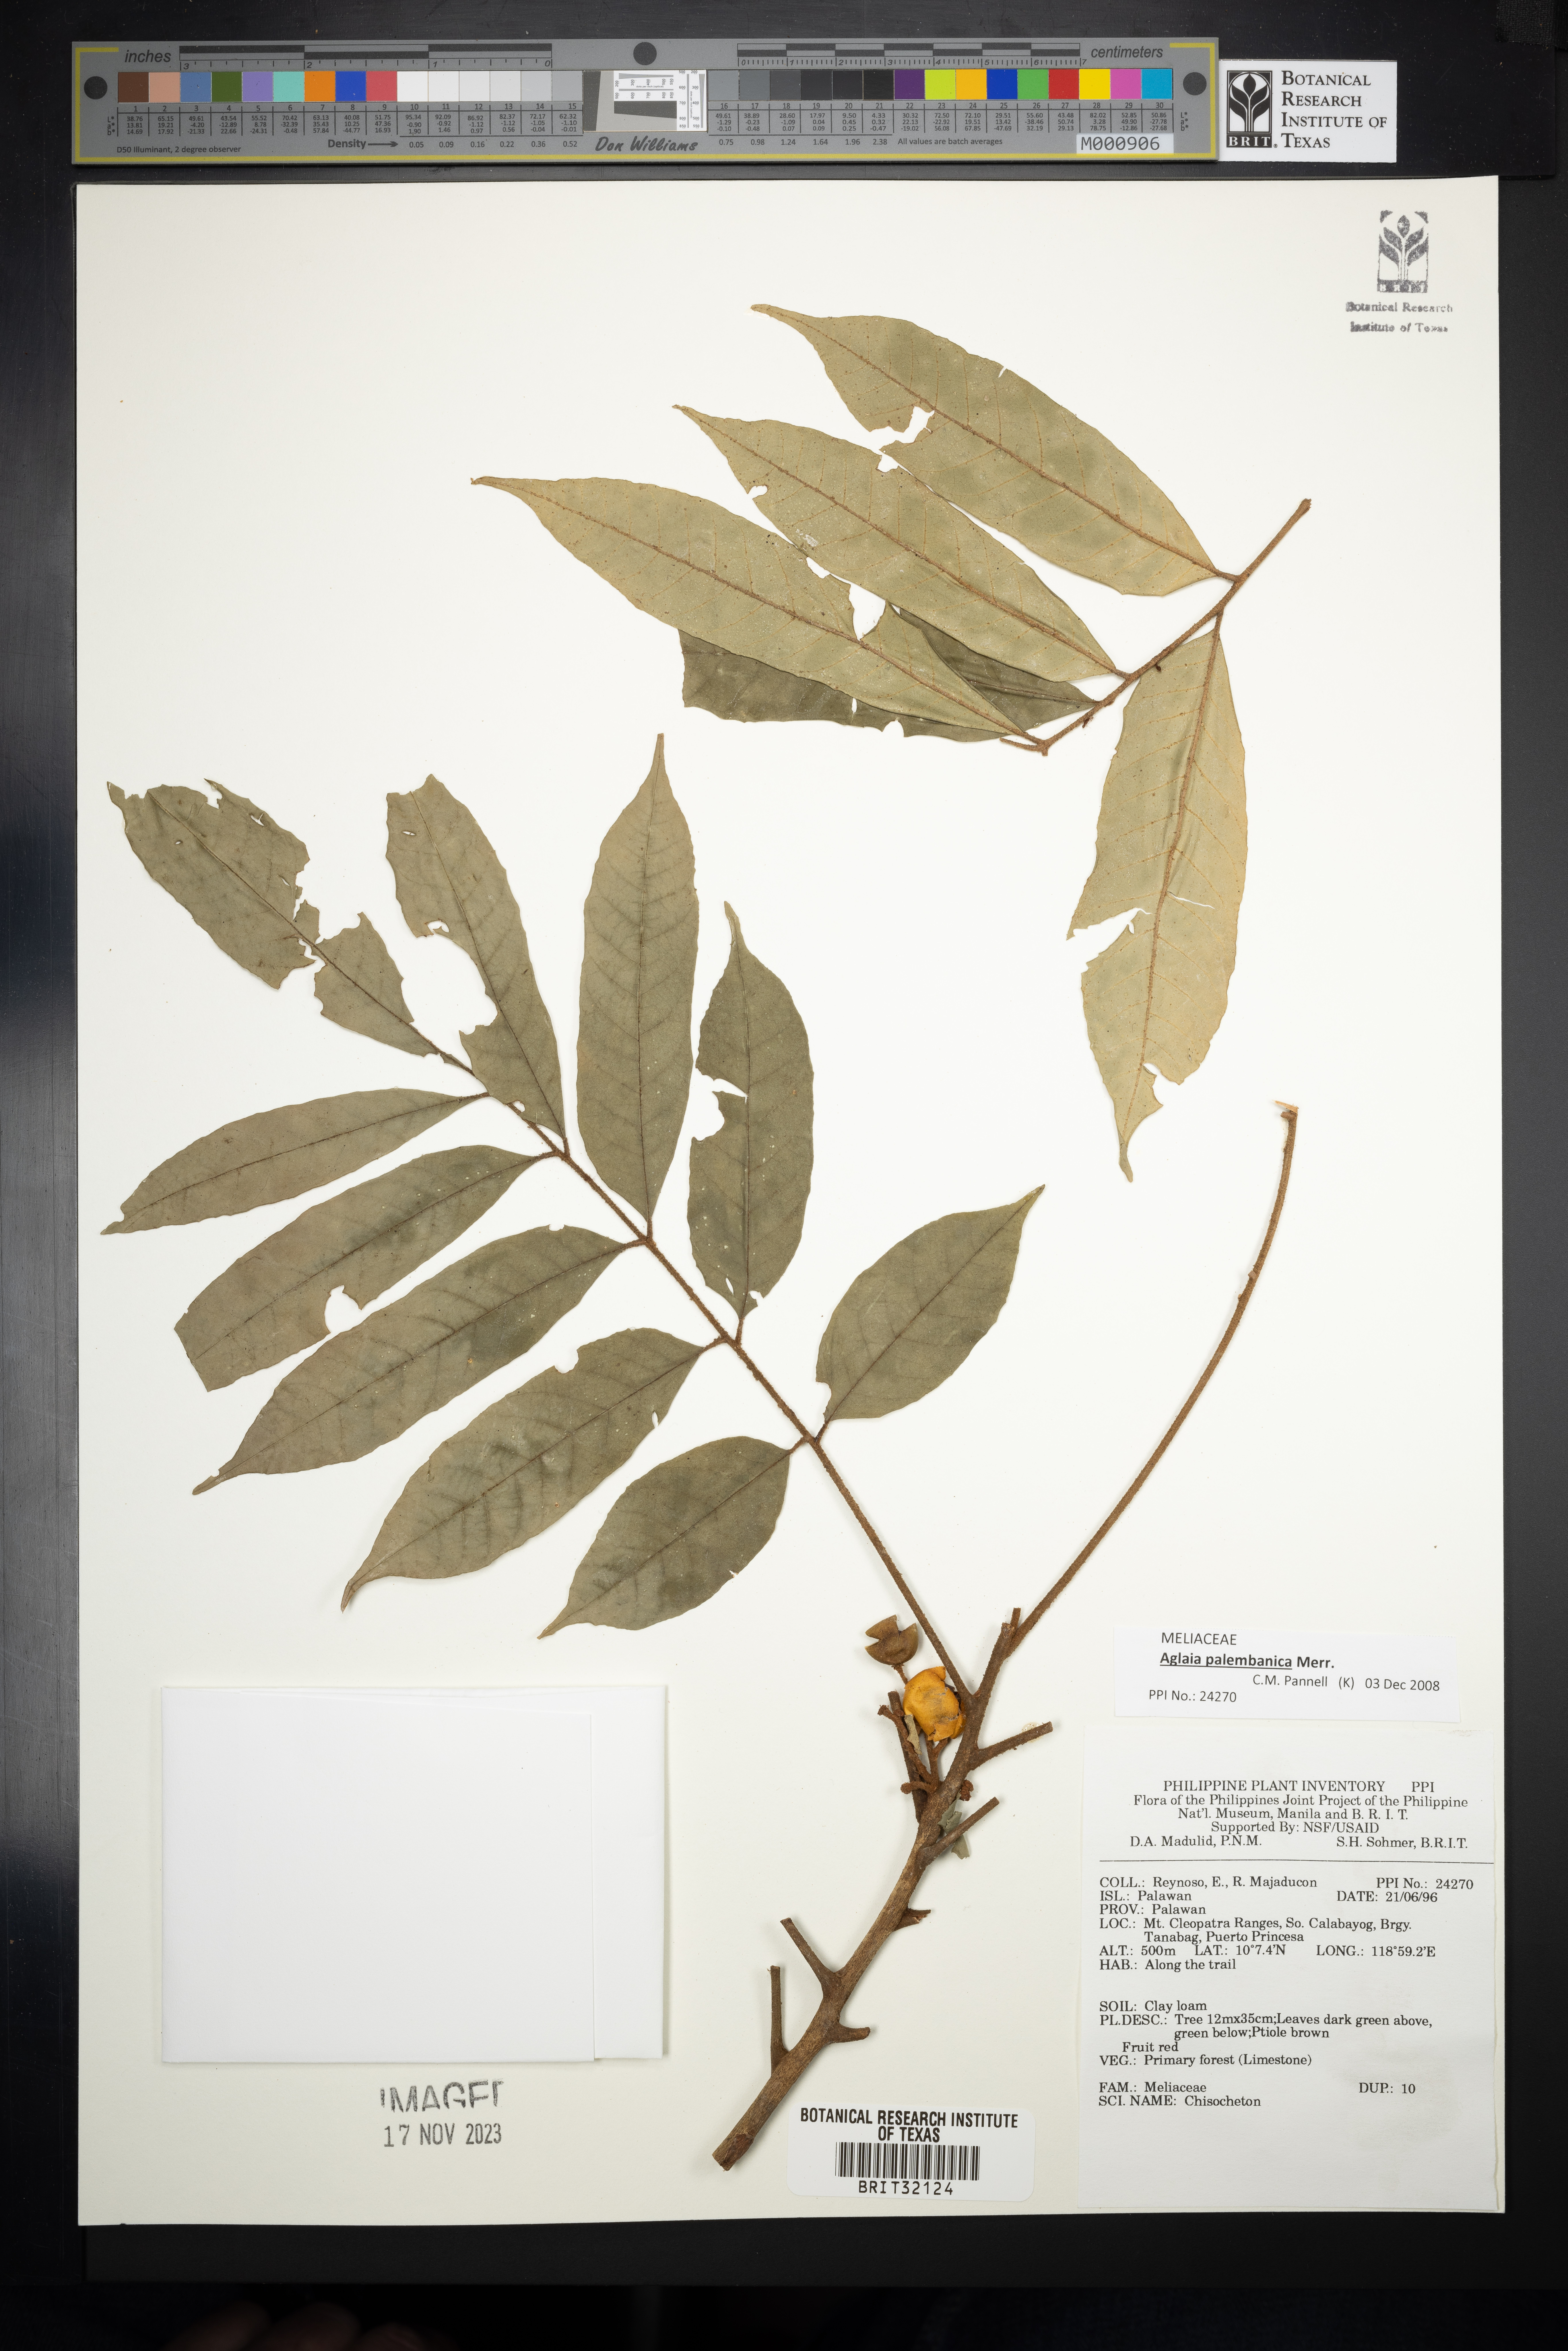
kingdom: Plantae
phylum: Tracheophyta
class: Magnoliopsida
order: Sapindales
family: Meliaceae
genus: Chisocheton
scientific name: Chisocheton
